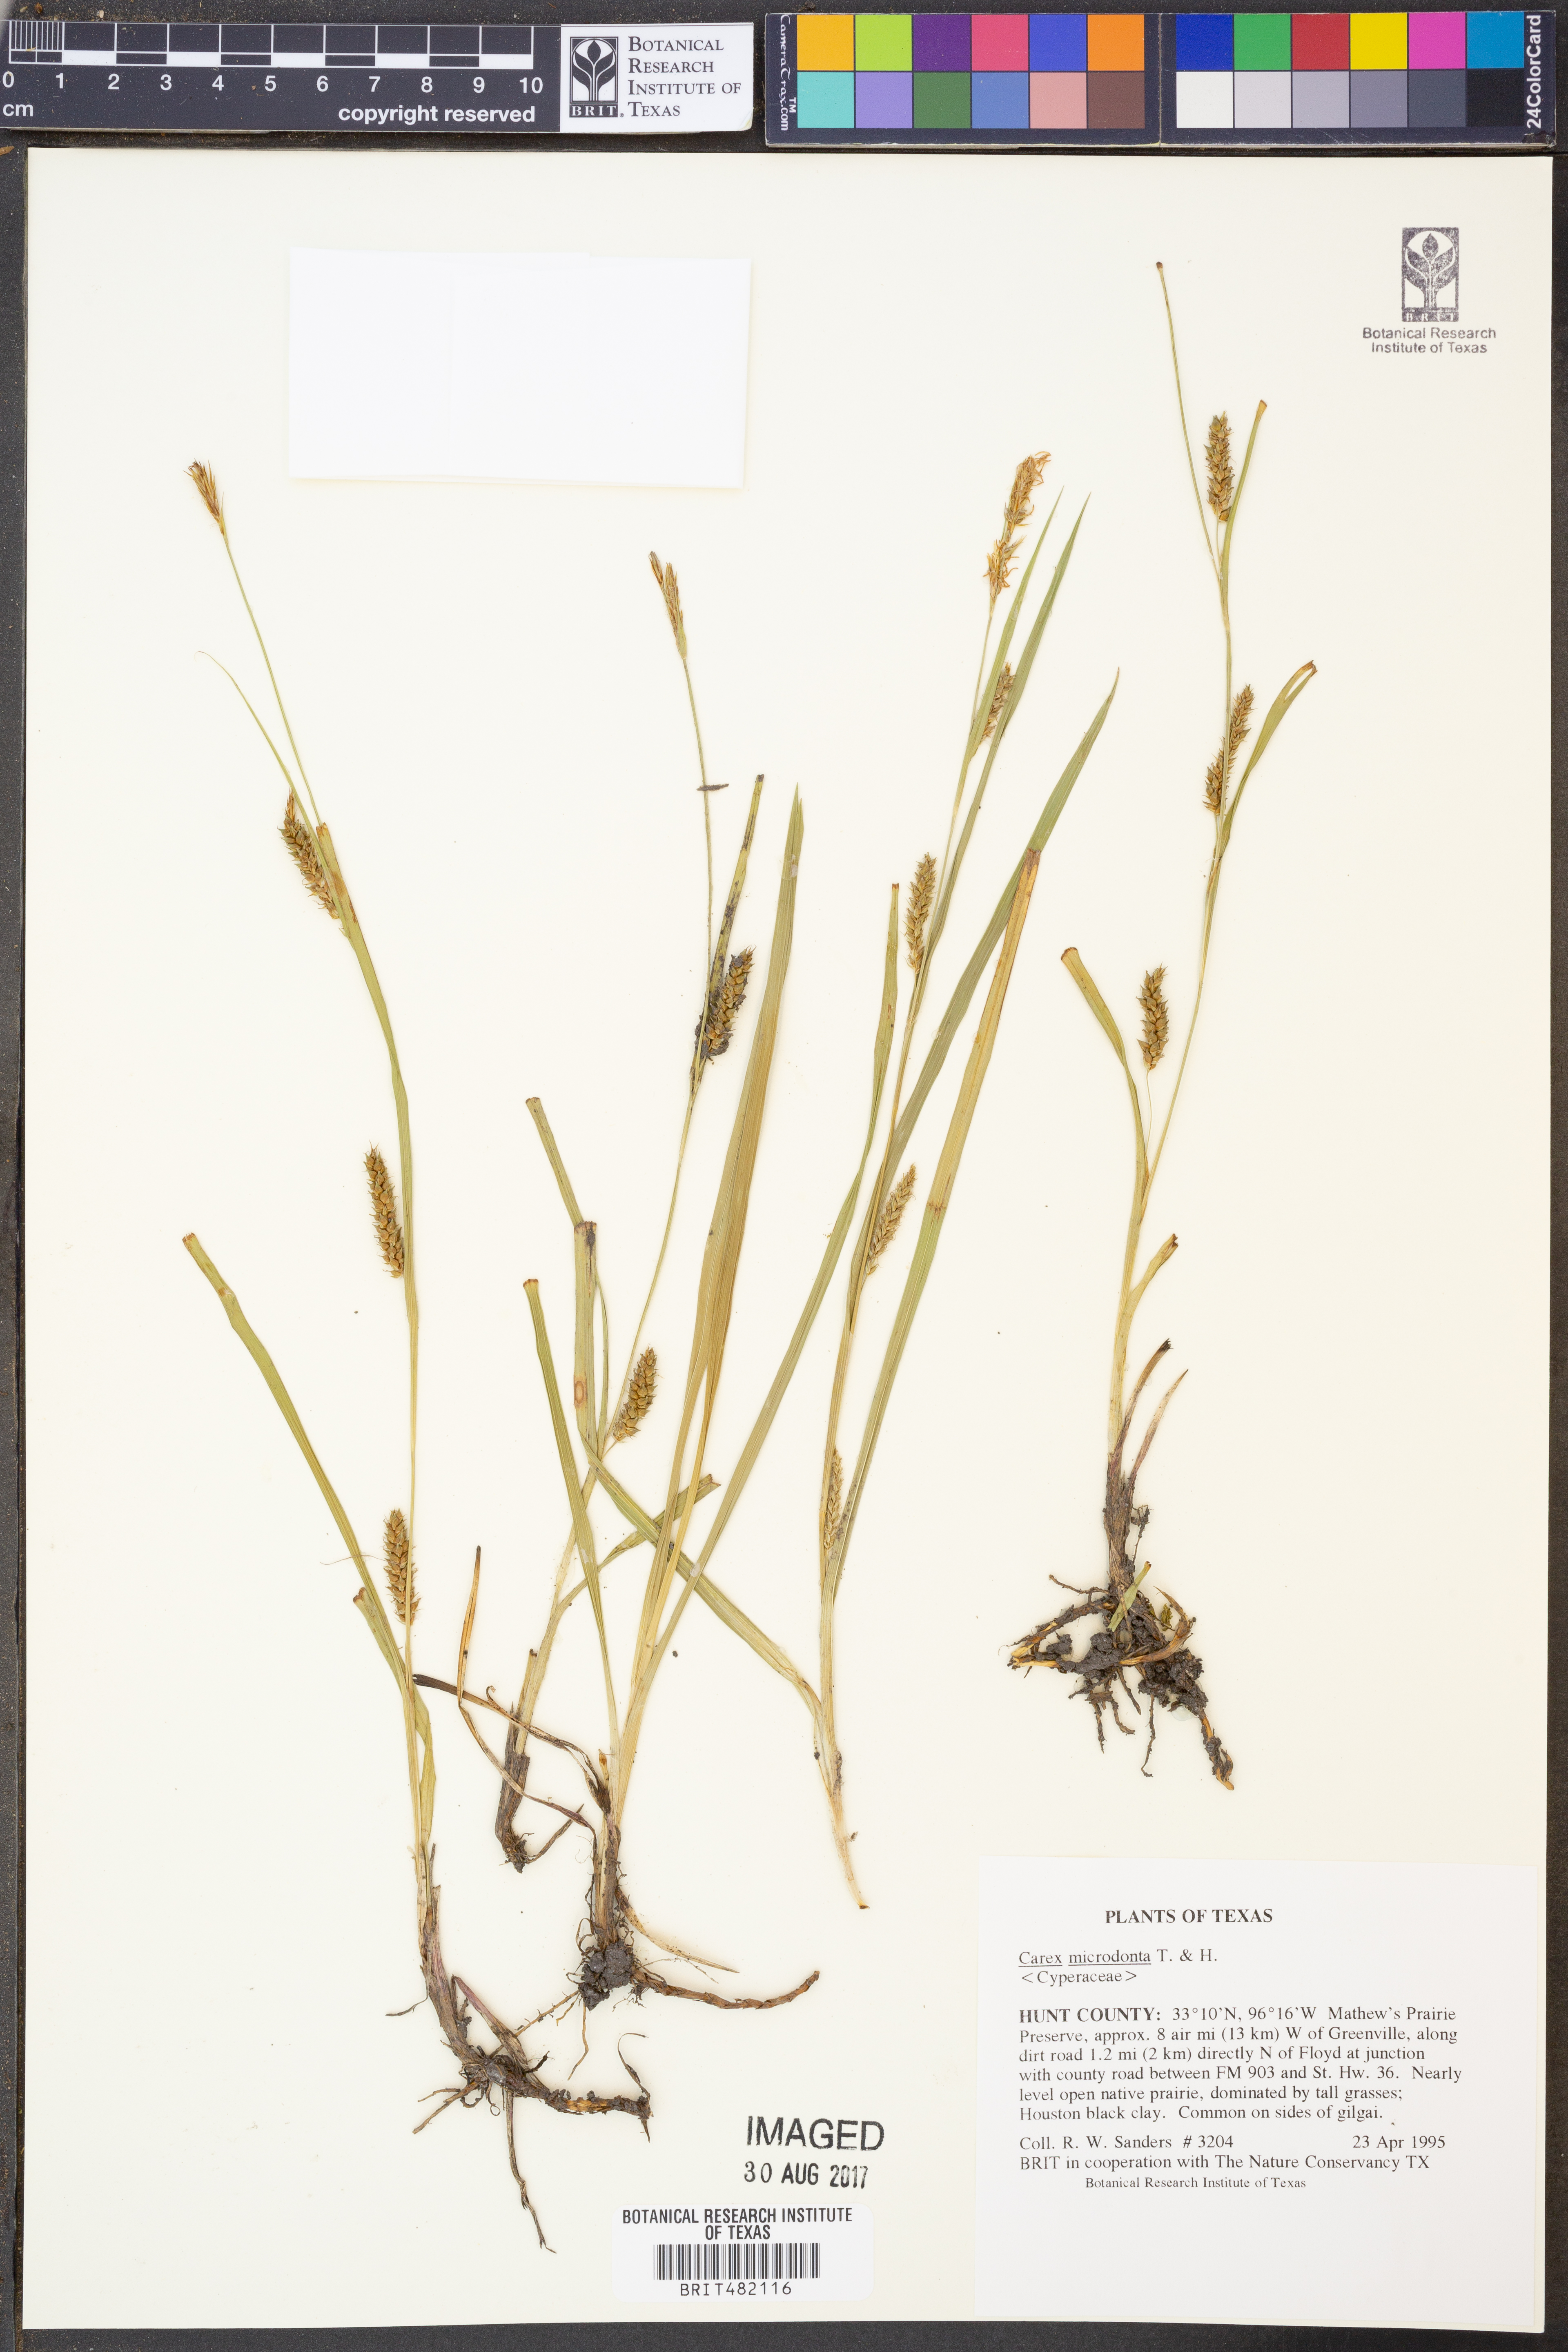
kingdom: Plantae
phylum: Tracheophyta
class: Liliopsida
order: Poales
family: Cyperaceae
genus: Carex
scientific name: Carex microdonta
